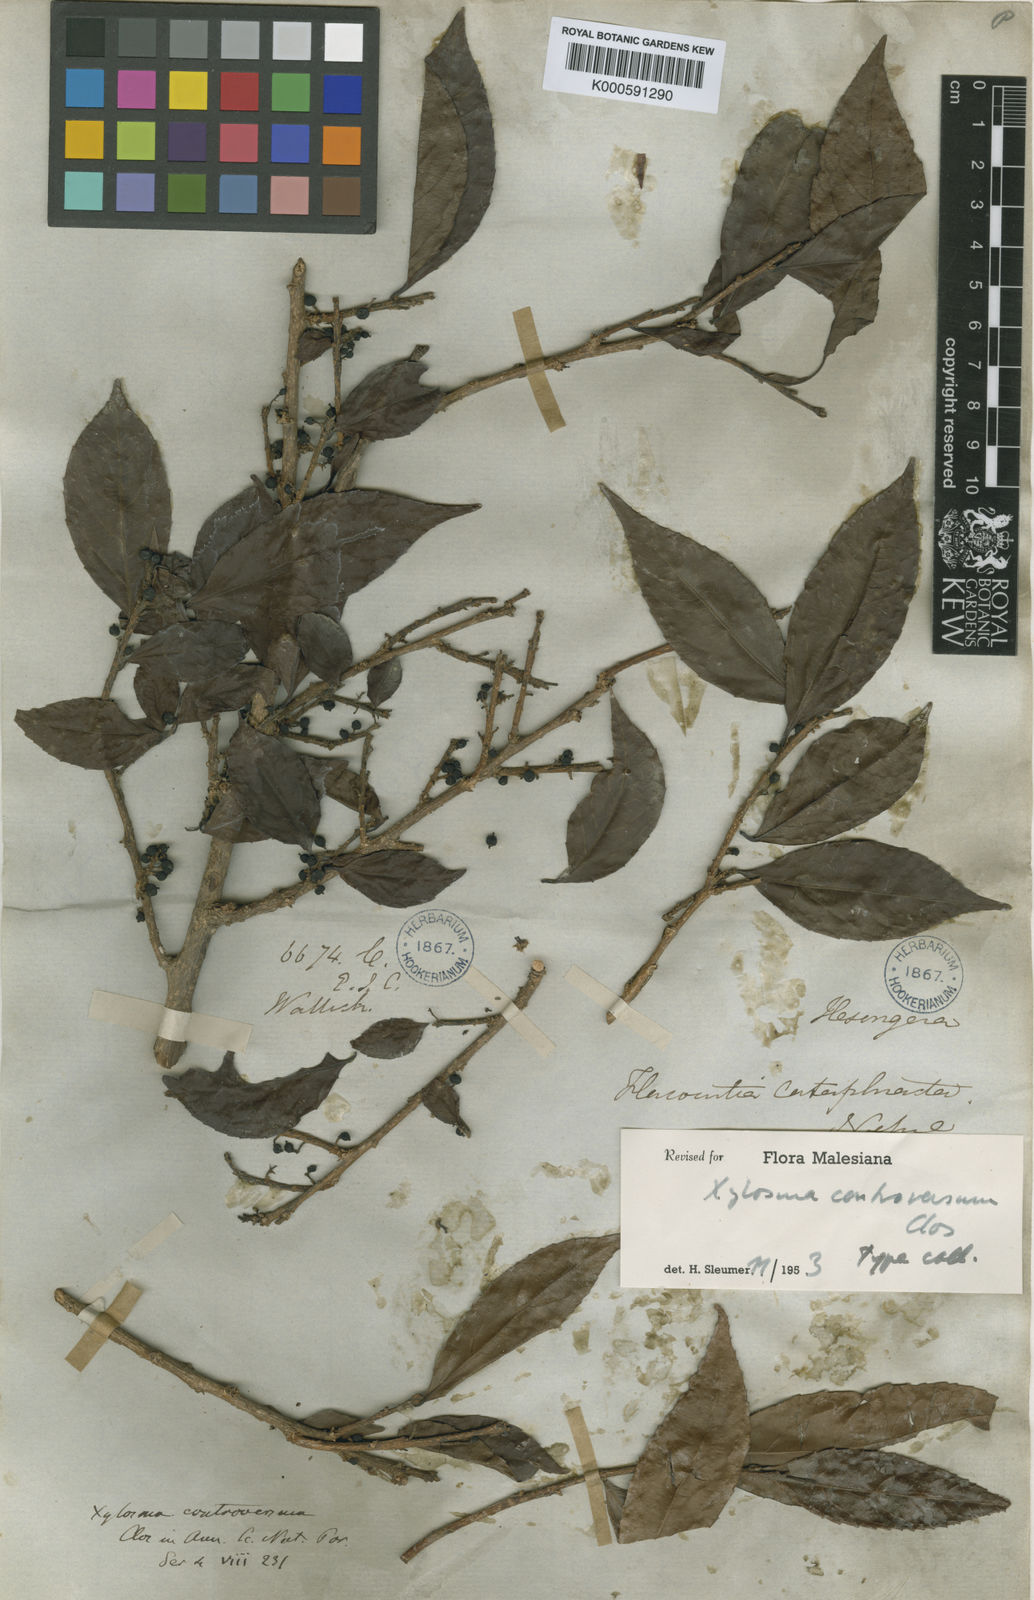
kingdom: Plantae
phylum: Tracheophyta
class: Magnoliopsida
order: Malpighiales
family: Salicaceae
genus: Xylosma
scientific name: Xylosma controversa
